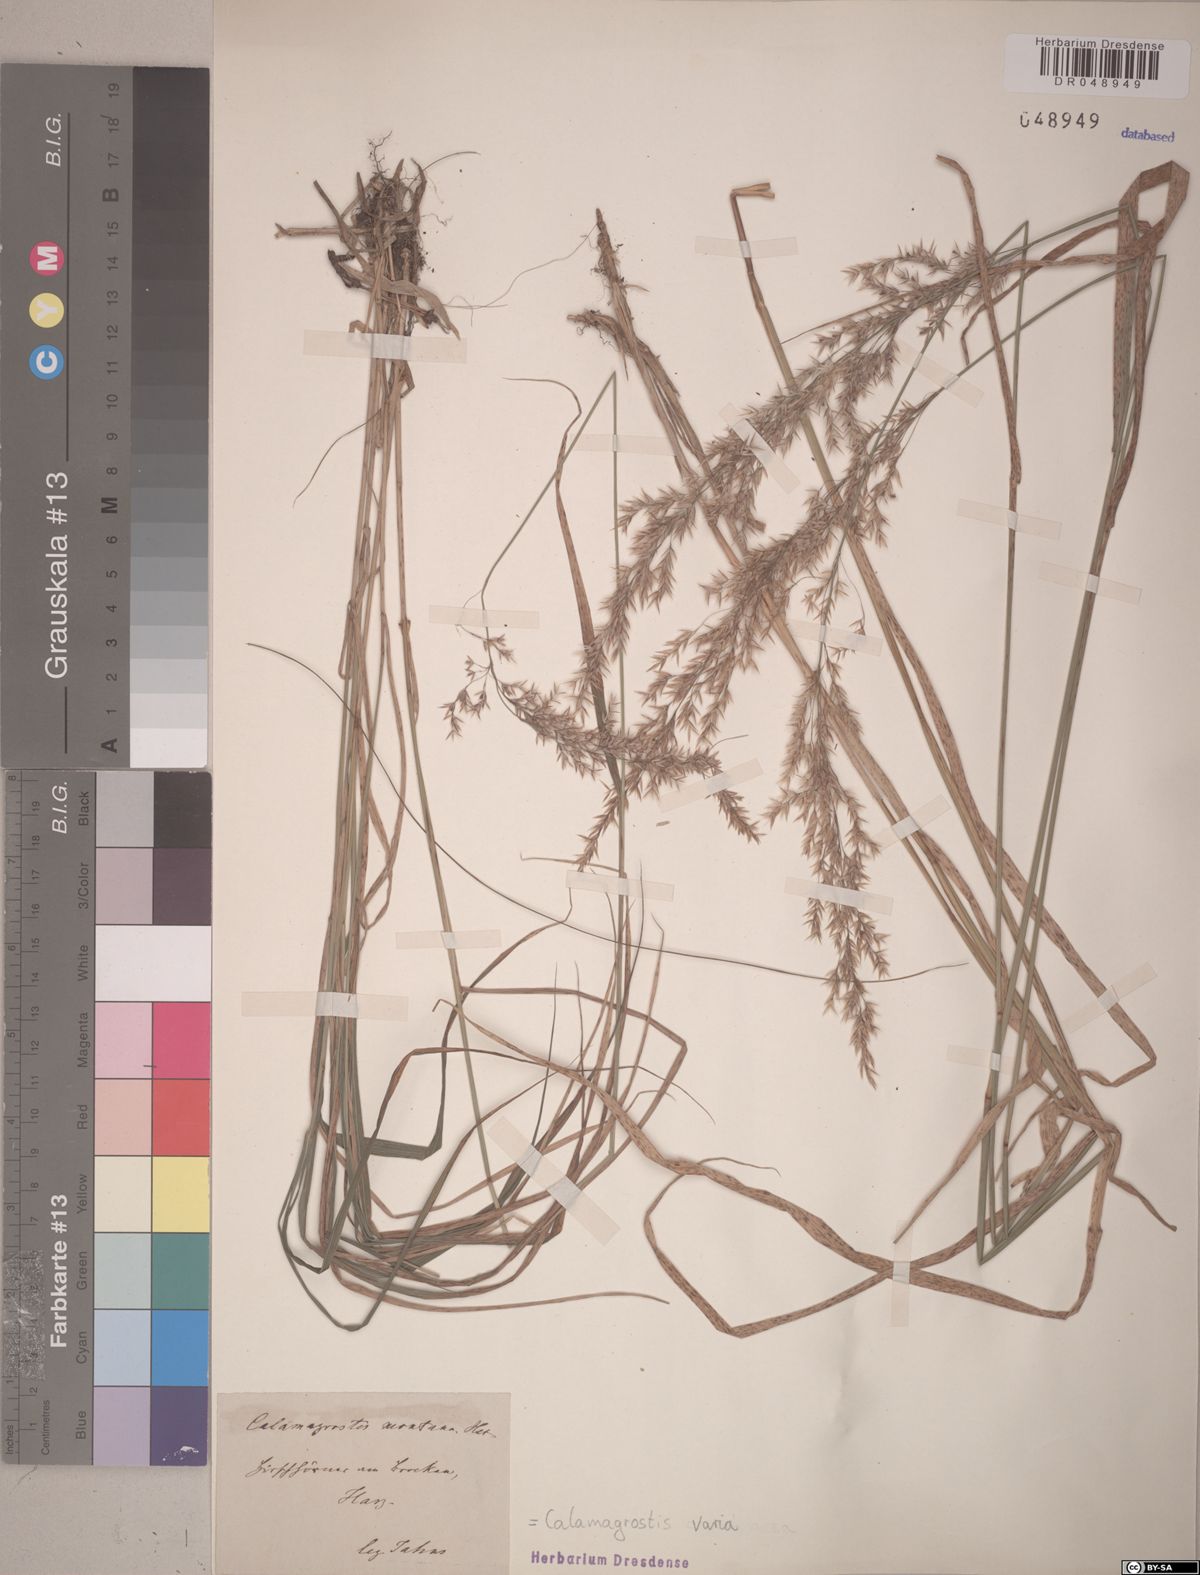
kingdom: Plantae
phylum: Tracheophyta
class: Liliopsida
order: Poales
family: Poaceae
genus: Calamagrostis
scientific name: Calamagrostis varia
